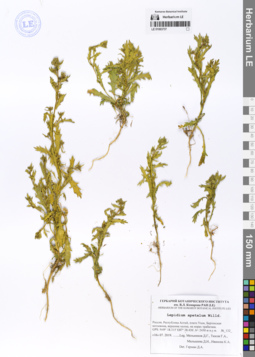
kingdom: Plantae
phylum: Tracheophyta
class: Magnoliopsida
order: Brassicales
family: Brassicaceae
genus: Lepidium
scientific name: Lepidium apetalum
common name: Pepperweed
